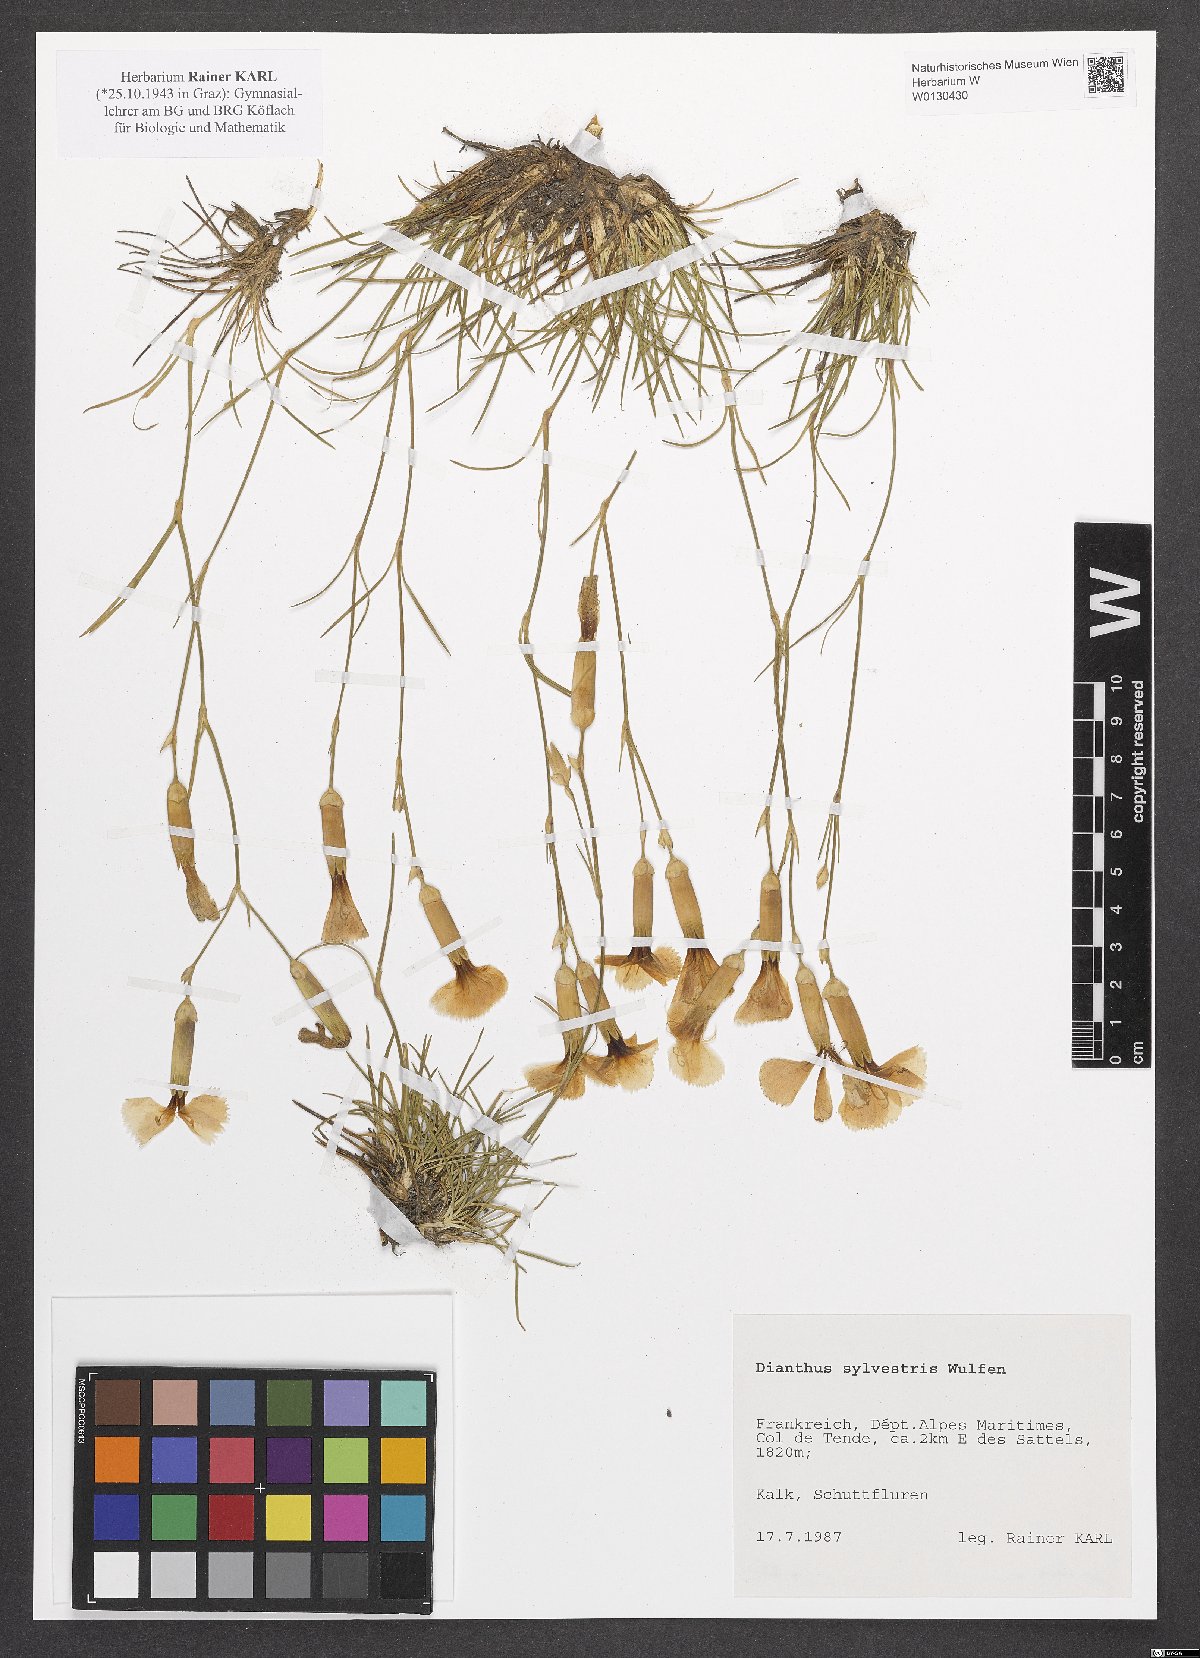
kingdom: Plantae
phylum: Tracheophyta
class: Magnoliopsida
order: Caryophyllales
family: Caryophyllaceae
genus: Dianthus
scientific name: Dianthus sylvestris
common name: Wood pink
